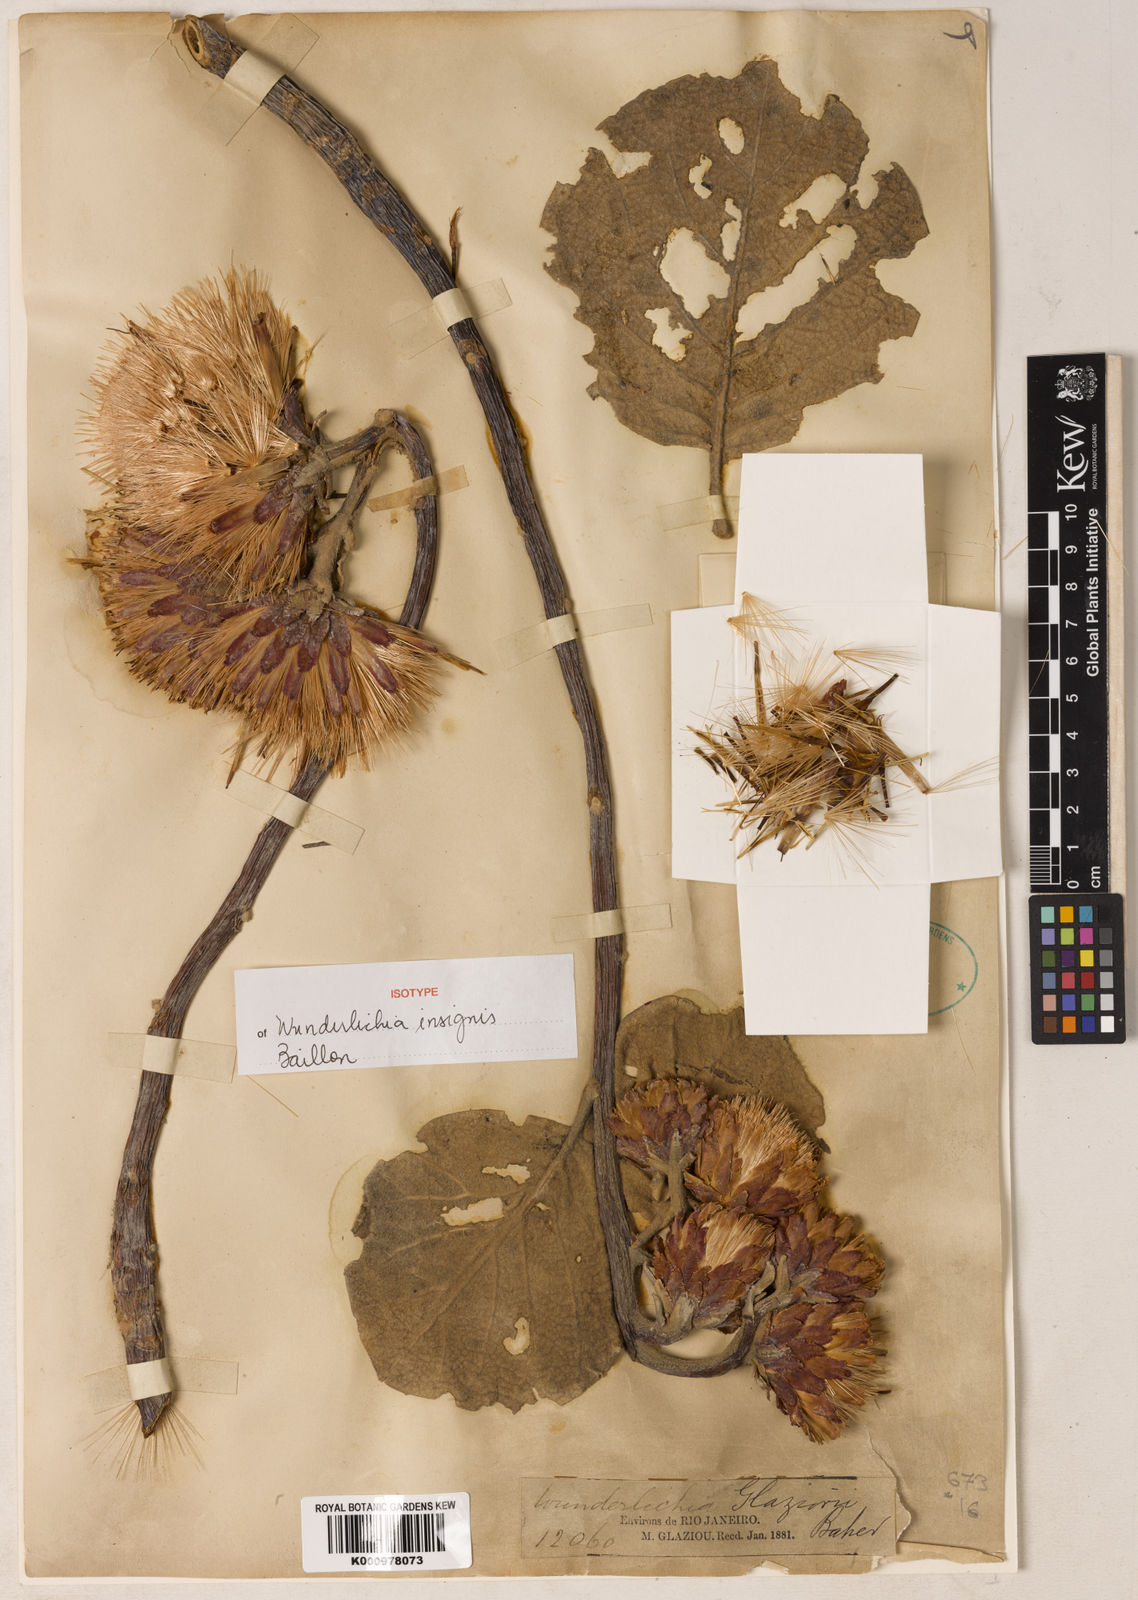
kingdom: Plantae
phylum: Tracheophyta
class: Magnoliopsida
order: Asterales
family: Asteraceae
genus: Wunderlichia
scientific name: Wunderlichia insignis
